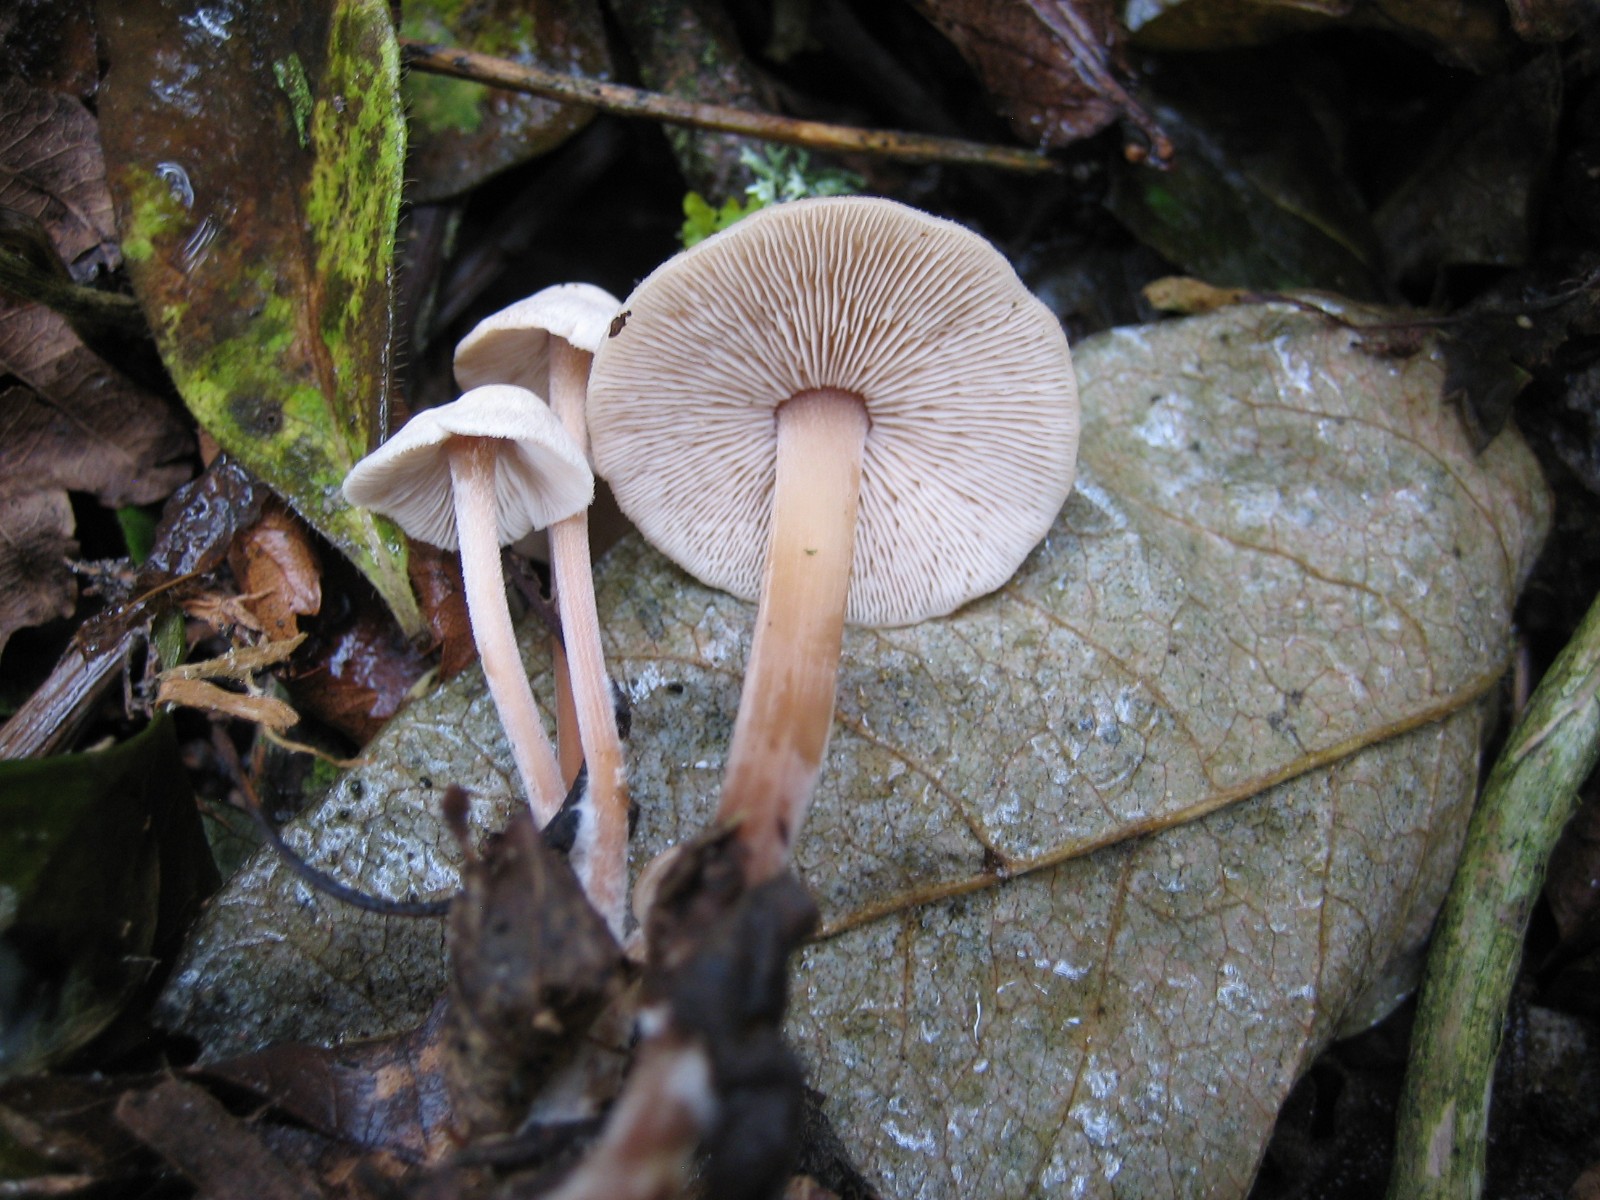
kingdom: Fungi
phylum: Basidiomycota
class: Agaricomycetes
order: Agaricales
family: Omphalotaceae
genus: Collybiopsis
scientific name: Collybiopsis confluens
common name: knippe-fladhat
